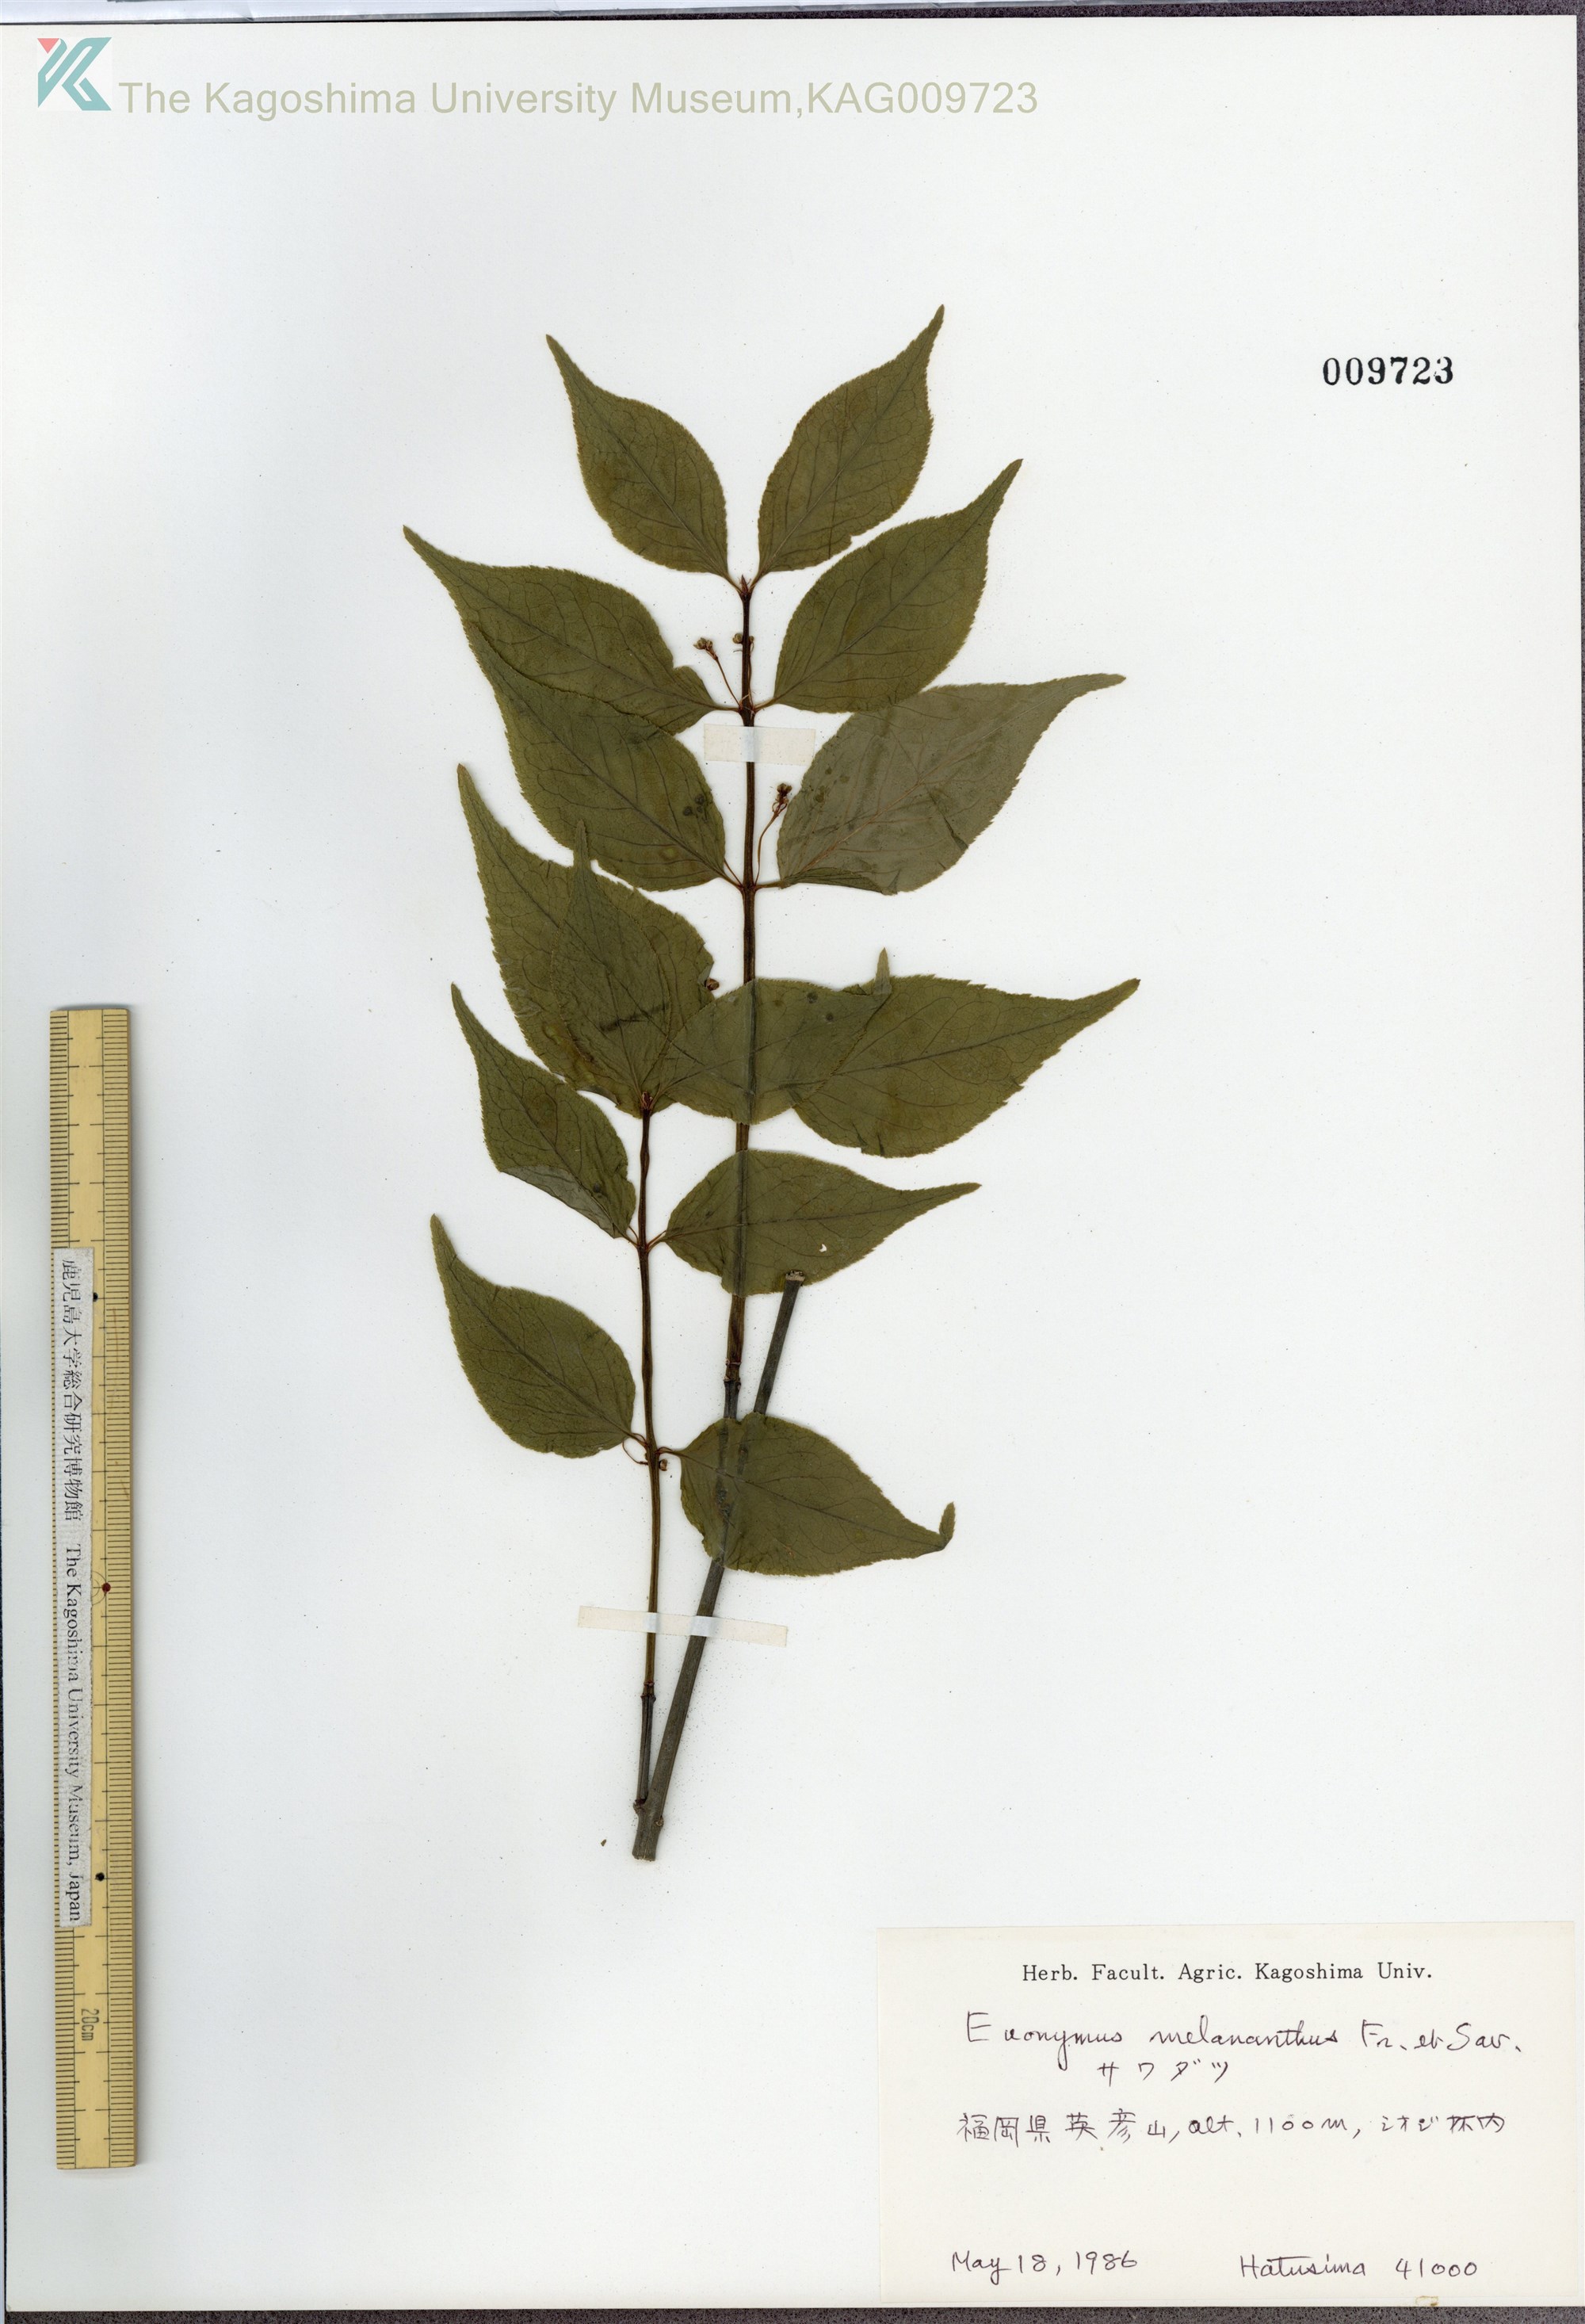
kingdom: Plantae
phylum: Tracheophyta
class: Magnoliopsida
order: Celastrales
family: Celastraceae
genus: Euonymus
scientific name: Euonymus melananthus
